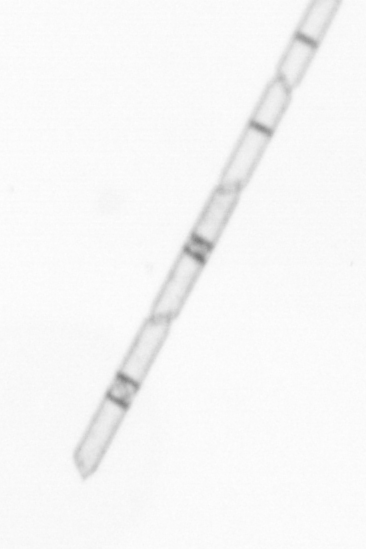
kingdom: Chromista
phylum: Ochrophyta
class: Bacillariophyceae
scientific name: Bacillariophyceae
